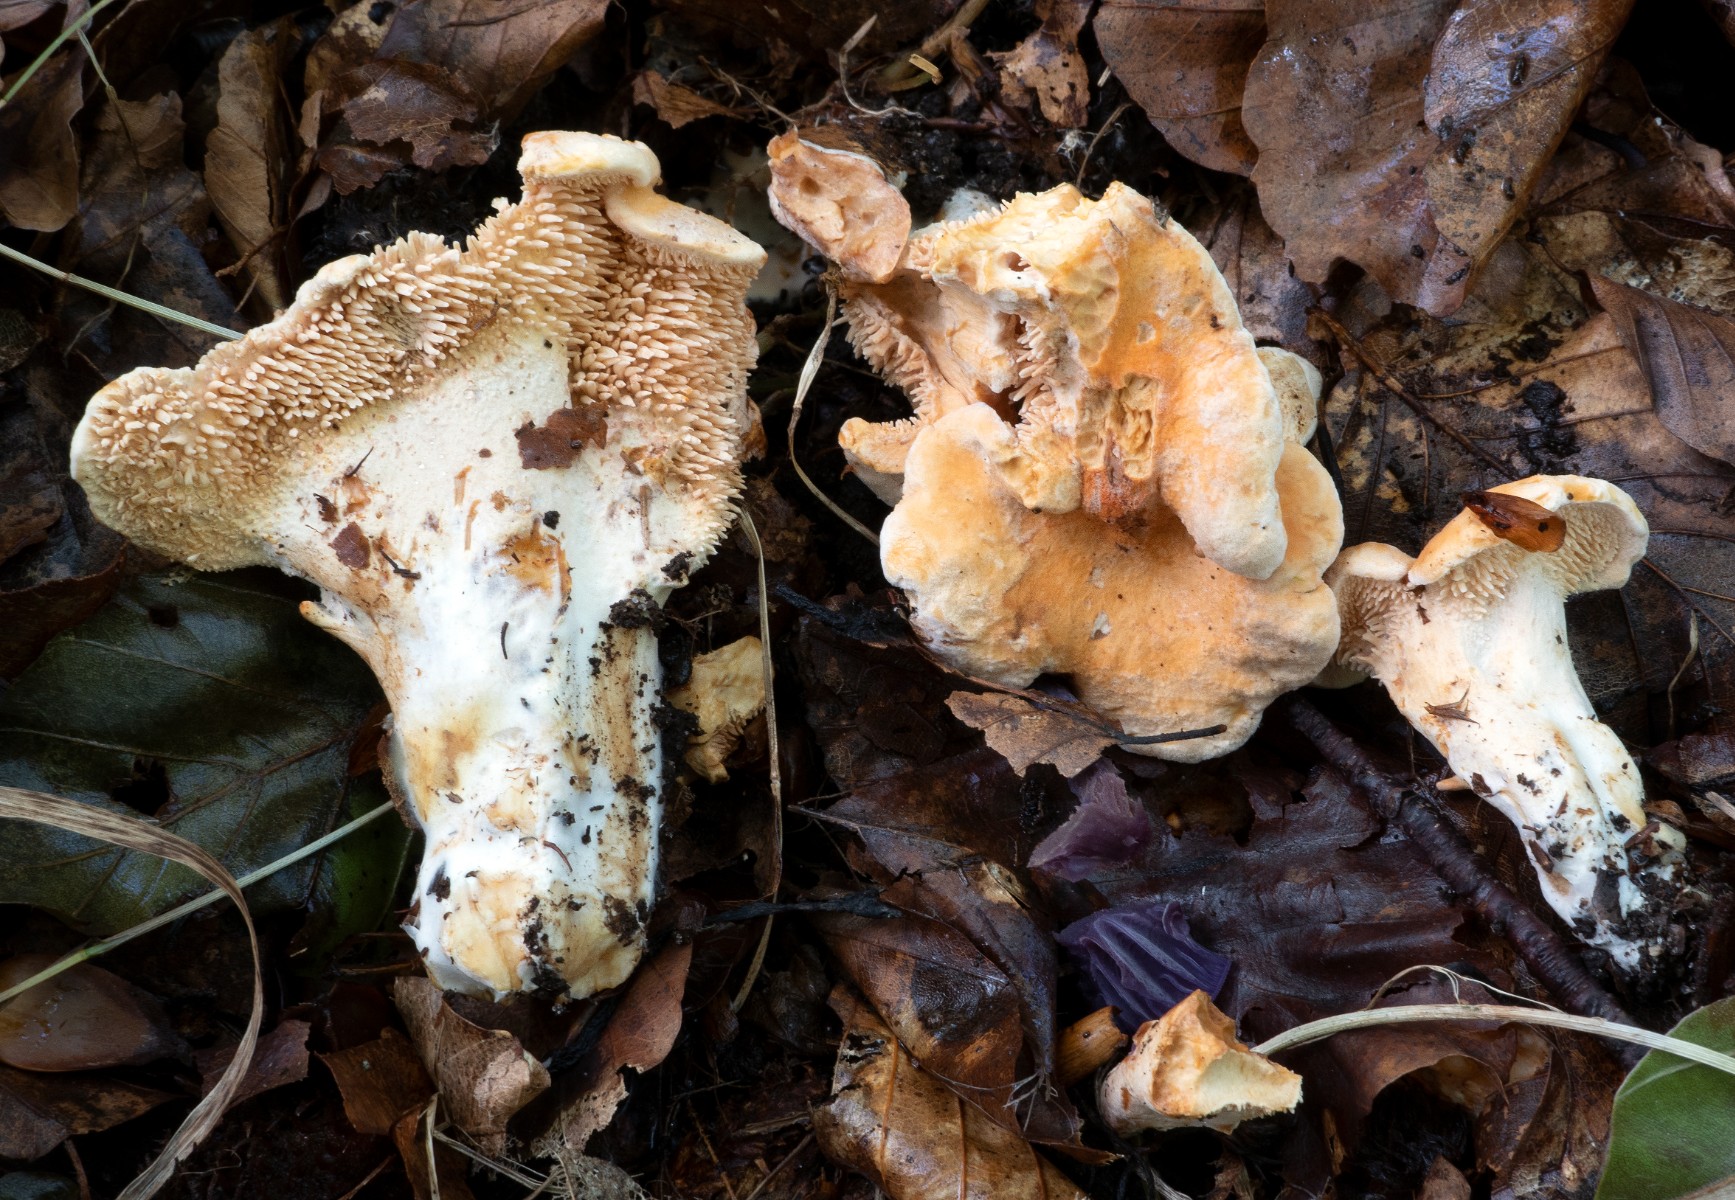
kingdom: Fungi
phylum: Basidiomycota
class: Agaricomycetes
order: Cantharellales
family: Hydnaceae
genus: Hydnum
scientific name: Hydnum ellipsosporum
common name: tandet pigsvamp
